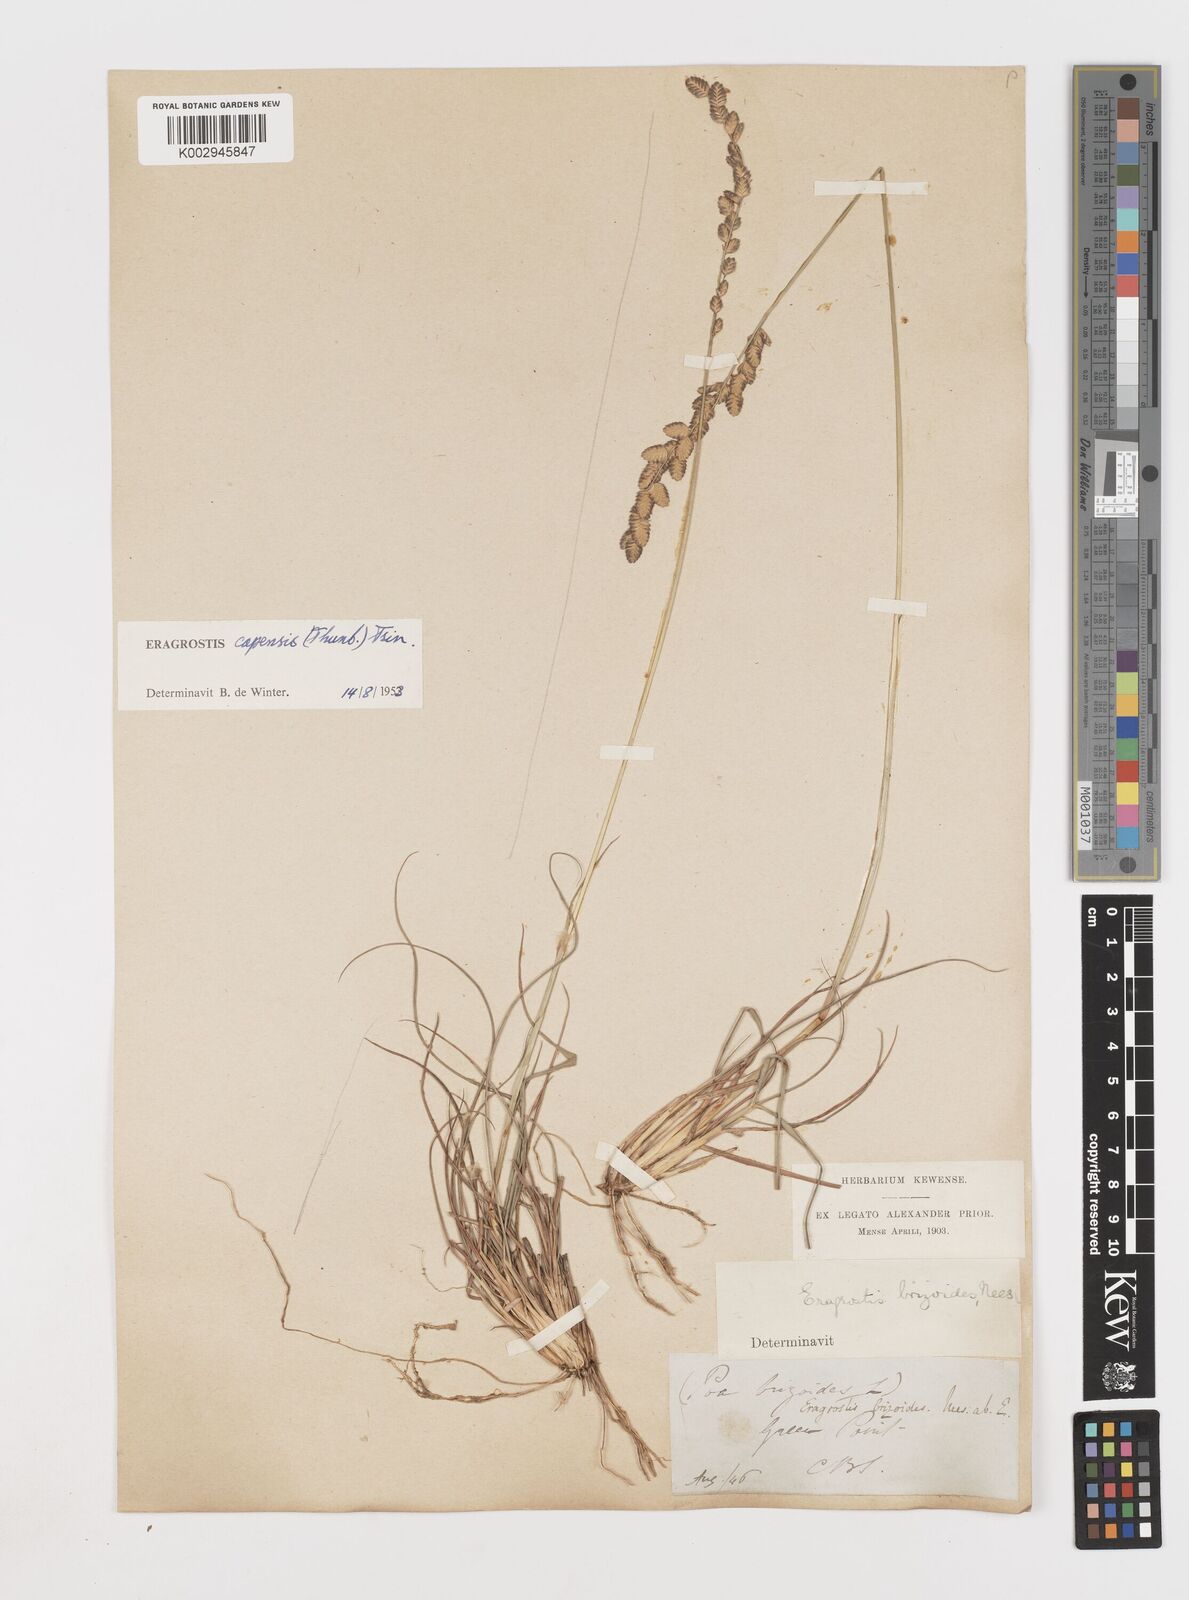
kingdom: Plantae
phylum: Tracheophyta
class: Liliopsida
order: Poales
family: Poaceae
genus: Eragrostis
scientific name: Eragrostis capensis
